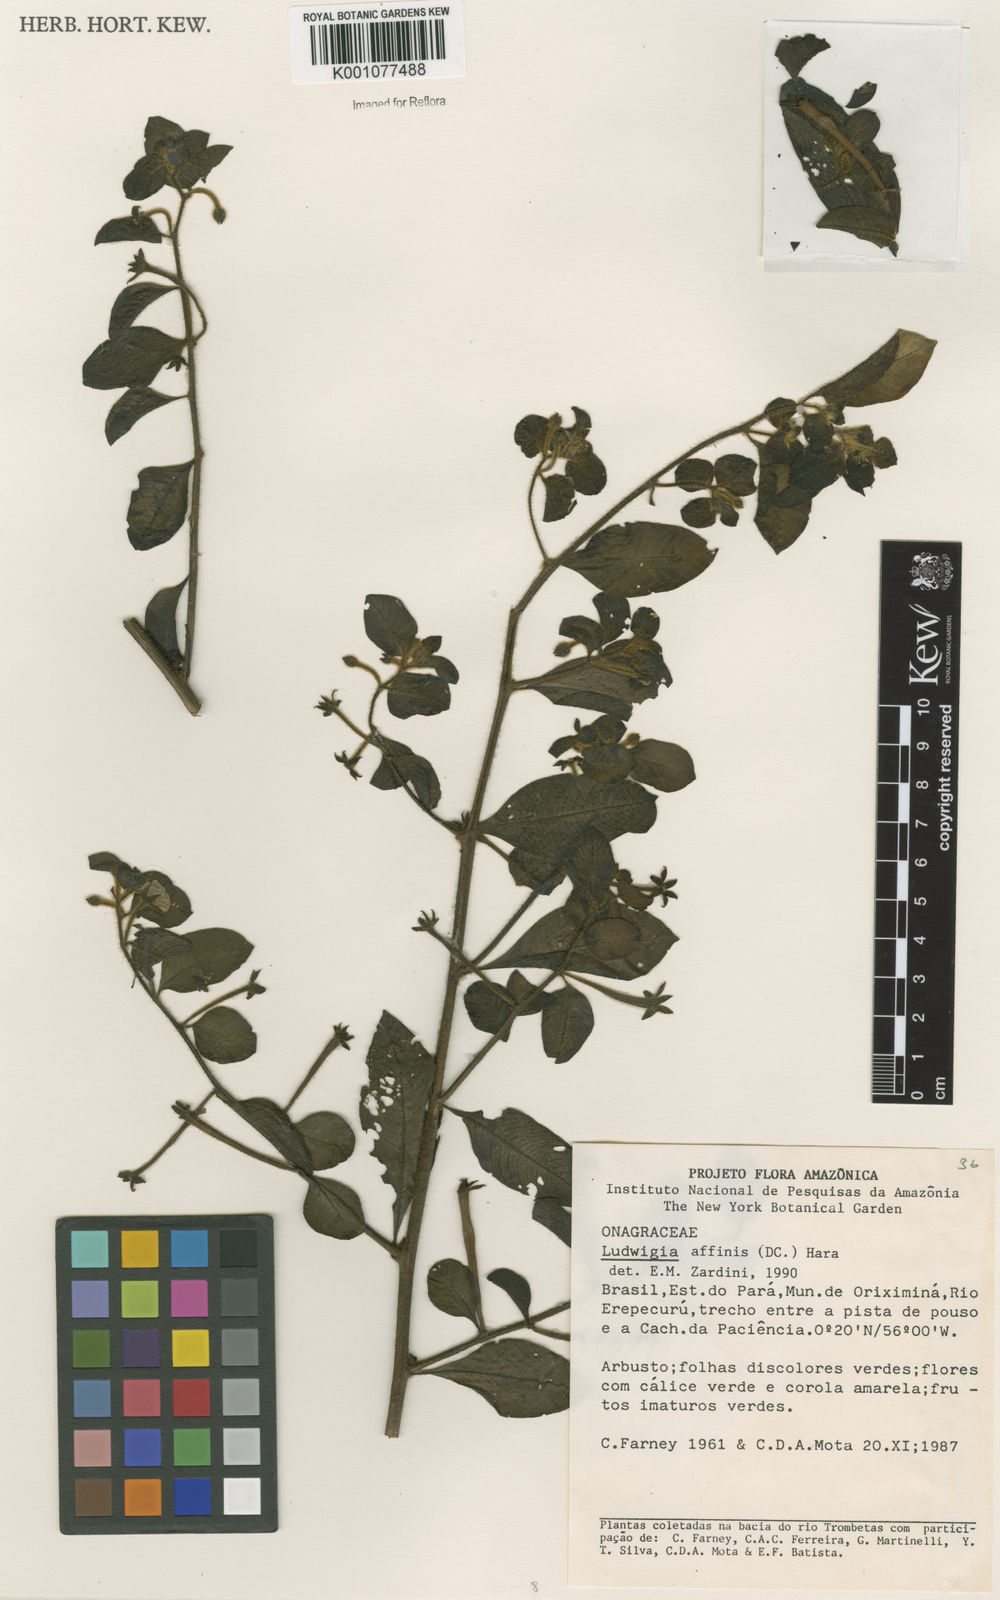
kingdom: Plantae
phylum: Tracheophyta
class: Magnoliopsida
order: Myrtales
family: Onagraceae
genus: Ludwigia
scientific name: Ludwigia affinis
